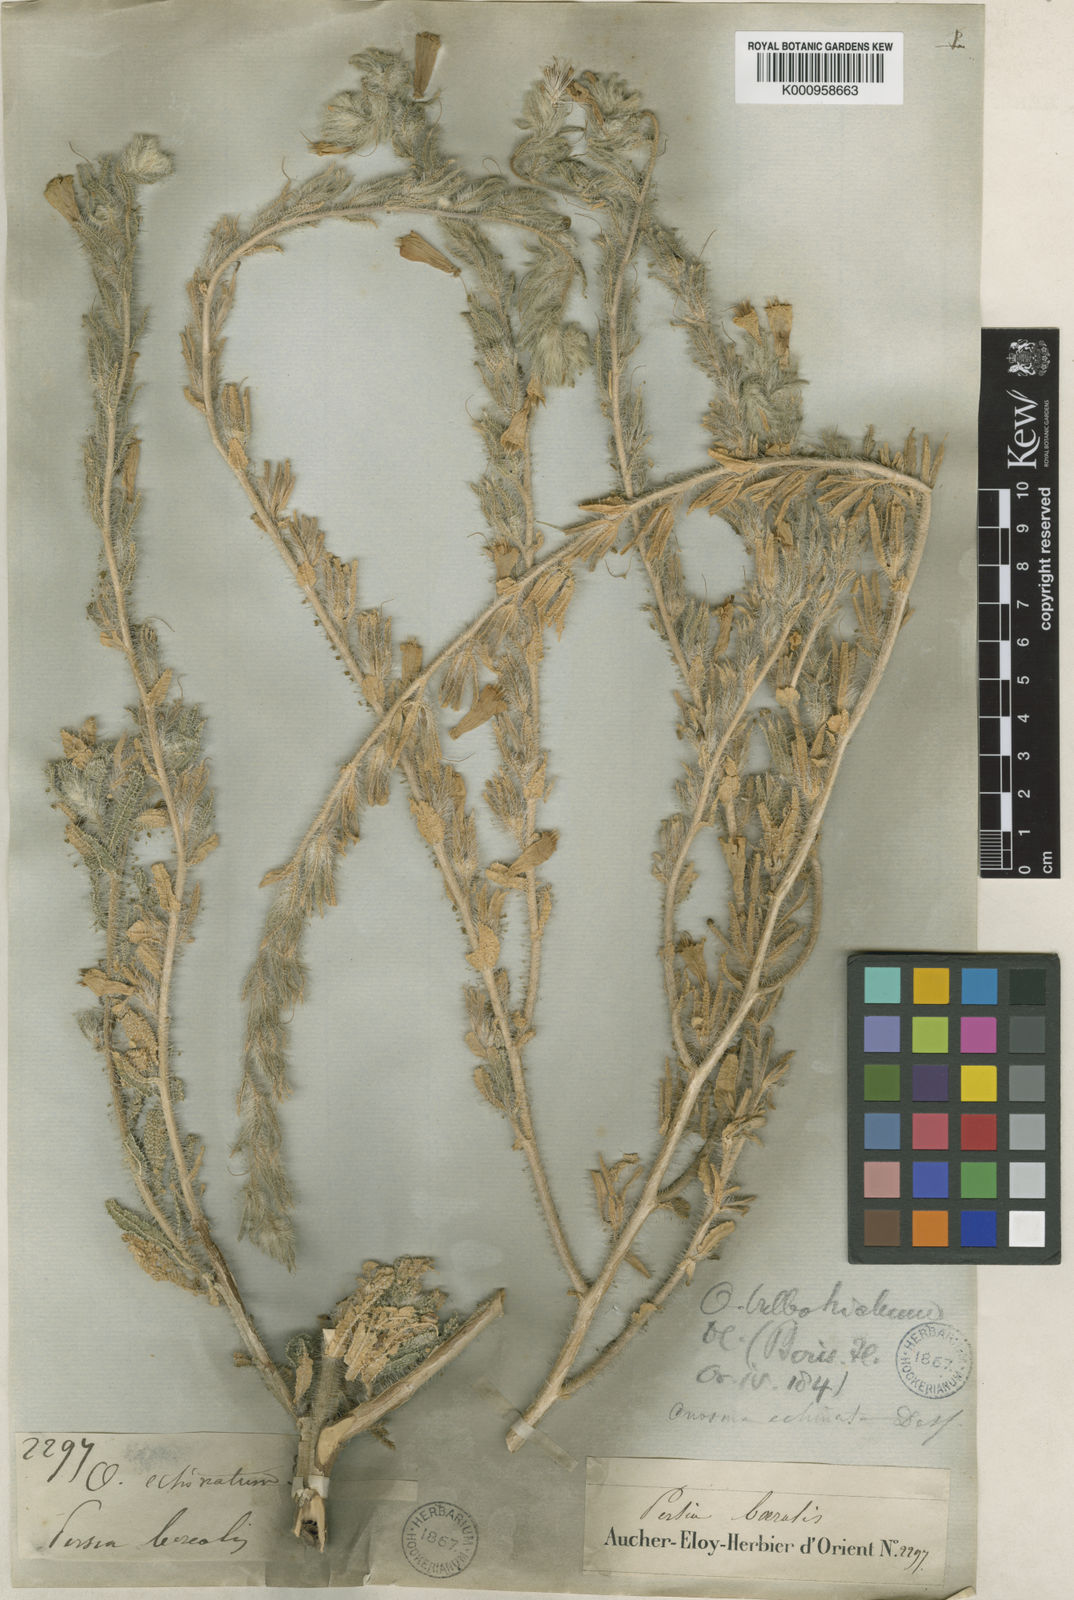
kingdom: Plantae
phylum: Tracheophyta
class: Magnoliopsida
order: Boraginales
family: Boraginaceae
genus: Onosma
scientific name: Onosma bulbotricha
